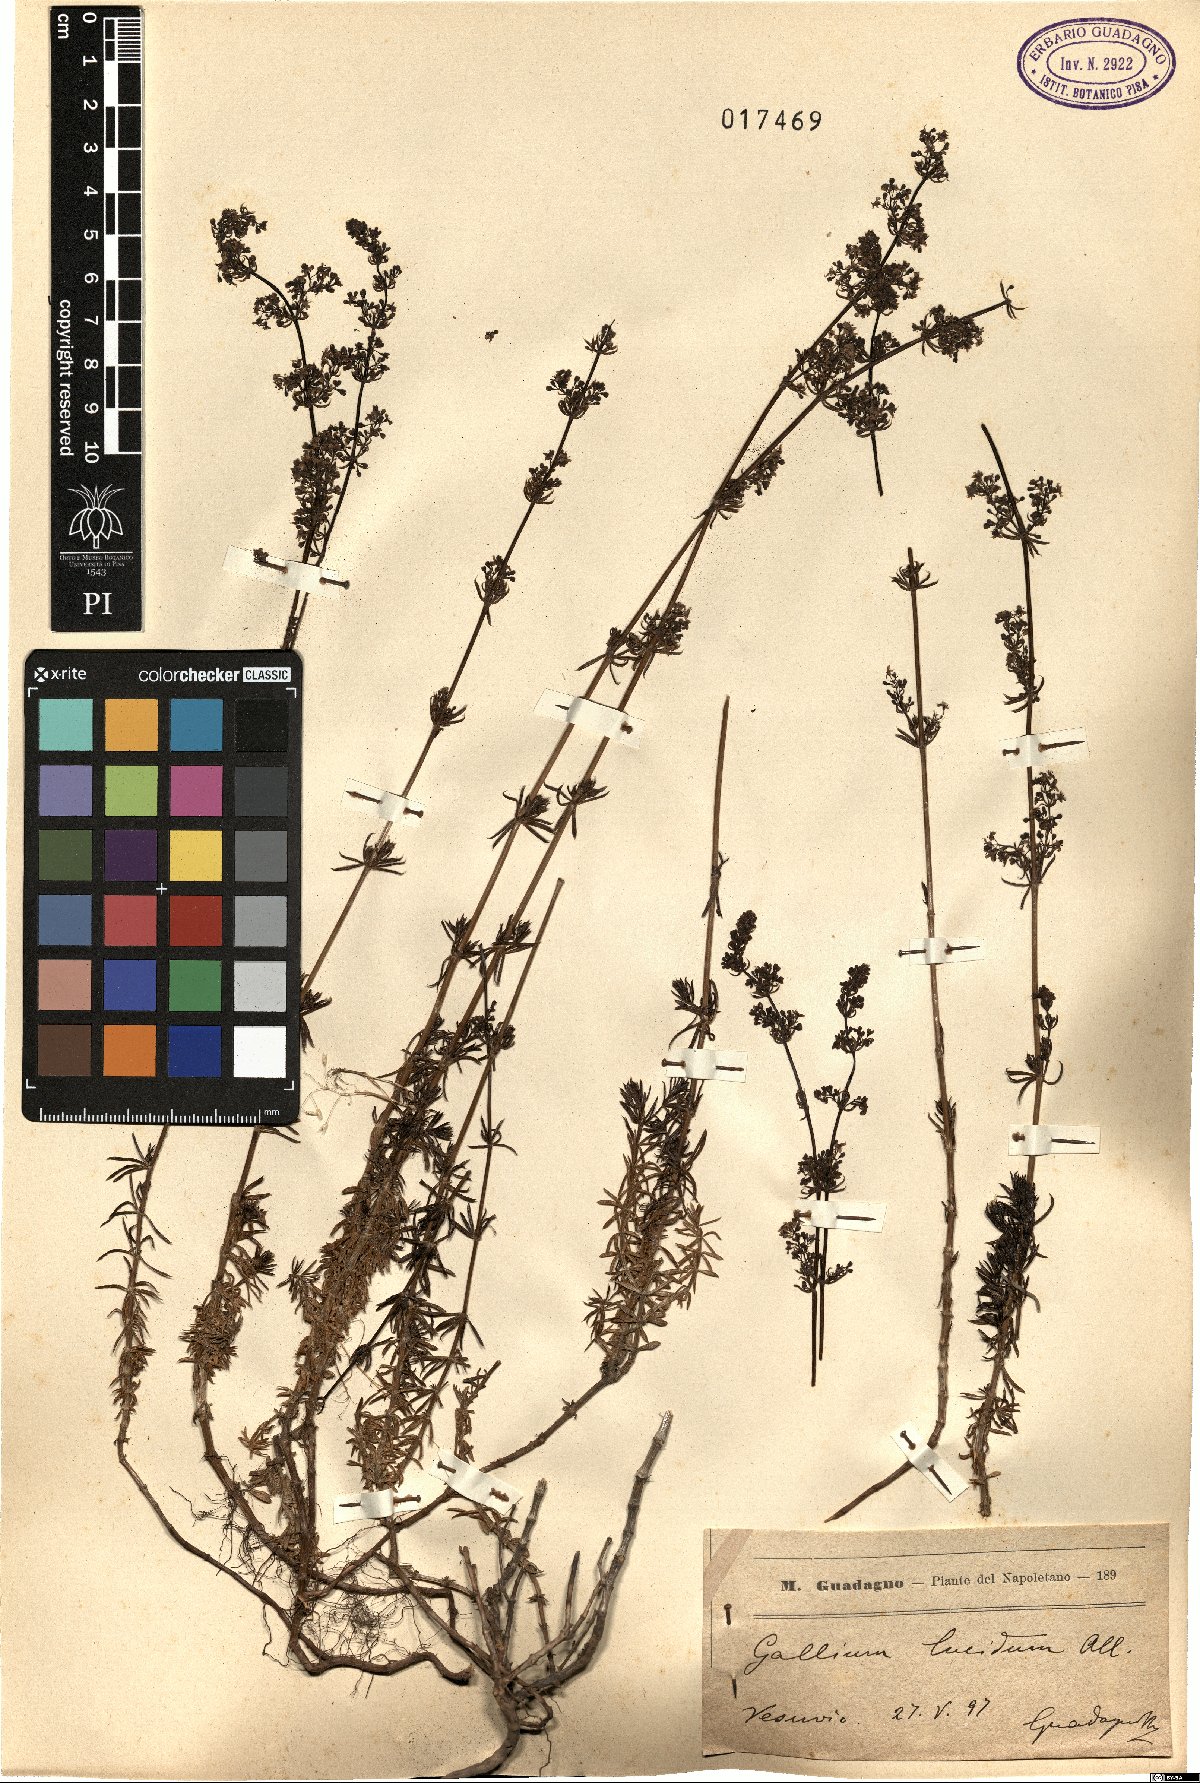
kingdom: Plantae
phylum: Tracheophyta
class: Magnoliopsida
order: Gentianales
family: Rubiaceae
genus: Galium
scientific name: Galium lucidum
